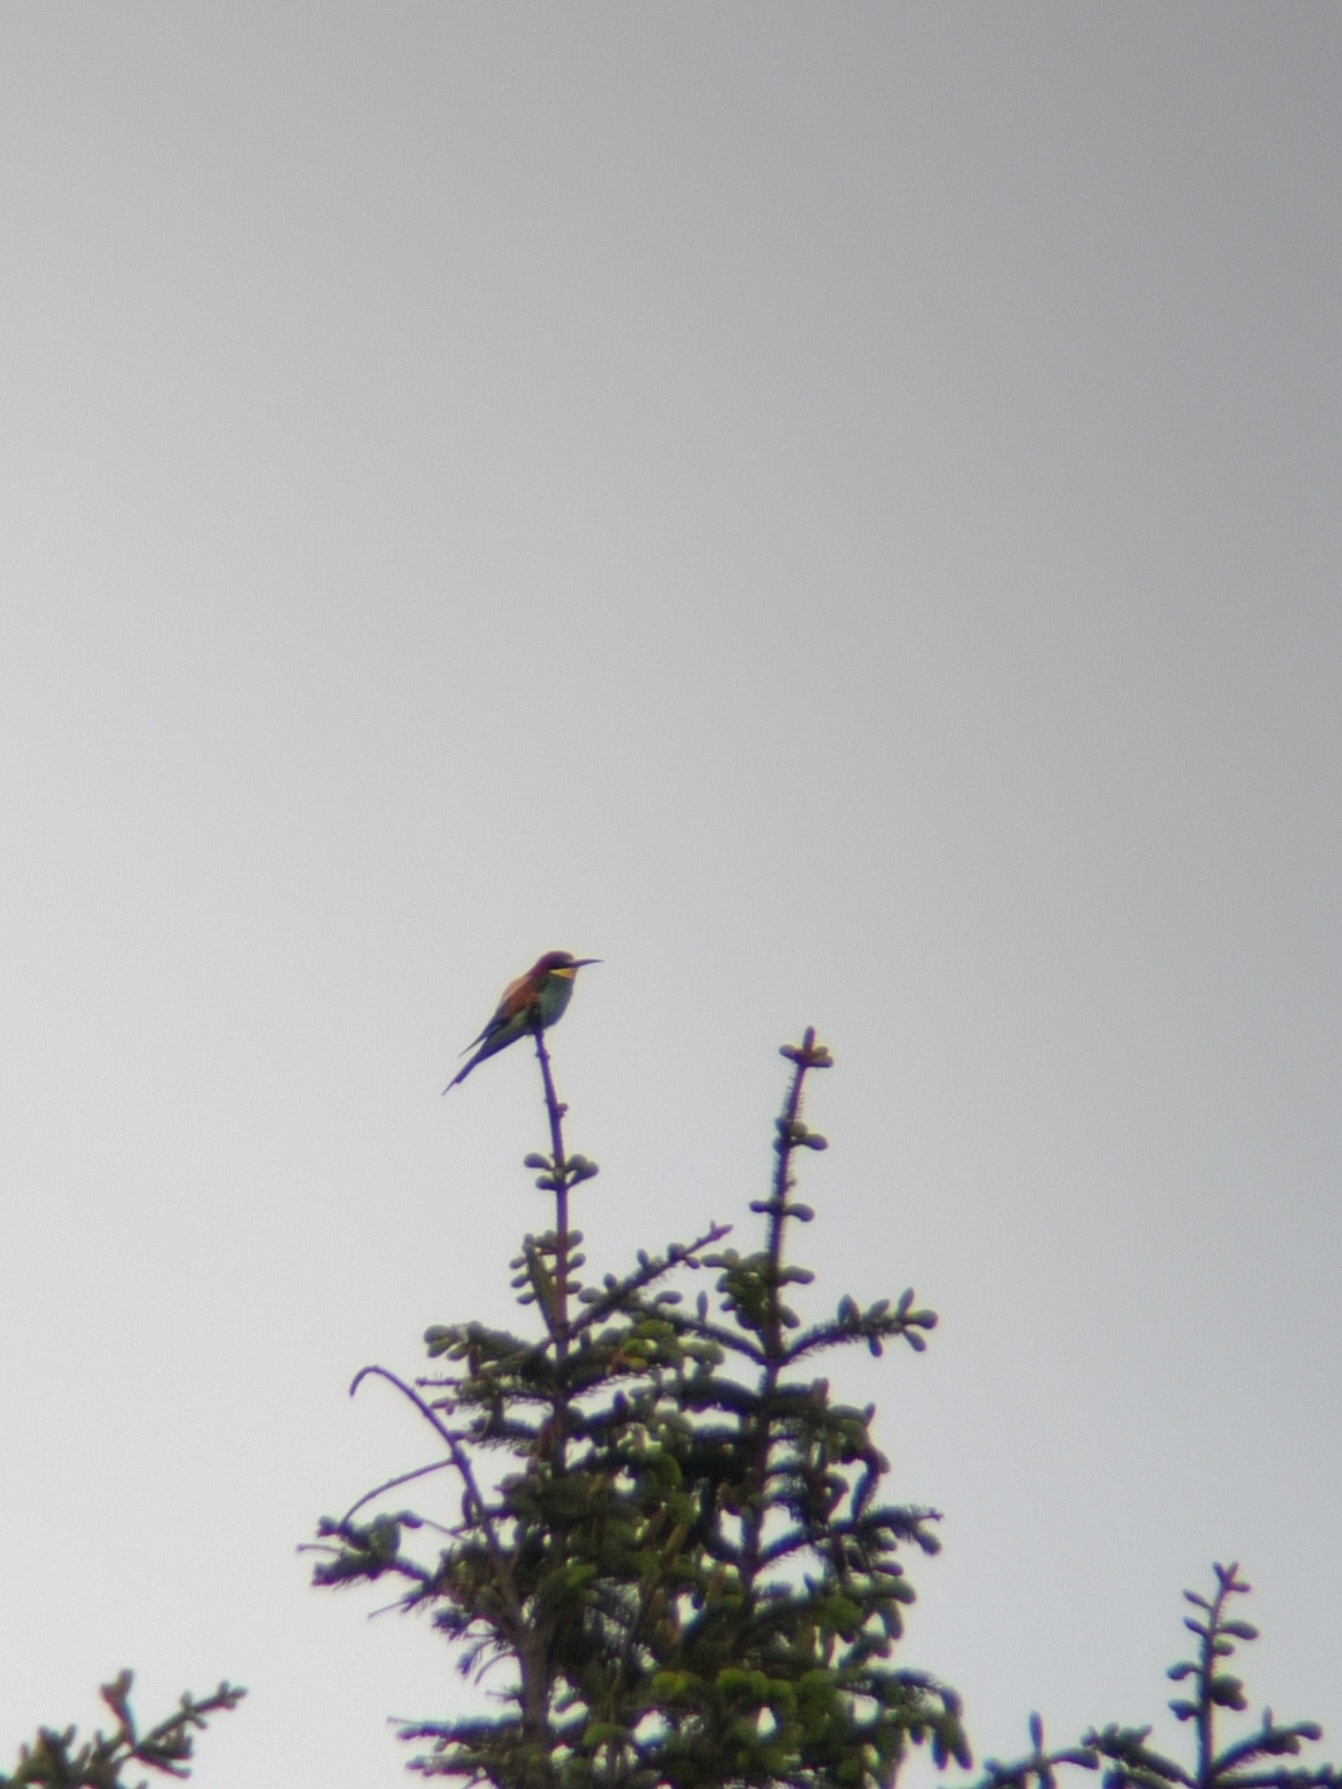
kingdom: Animalia
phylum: Chordata
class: Aves
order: Coraciiformes
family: Meropidae
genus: Merops
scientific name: Merops apiaster
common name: Biæder
